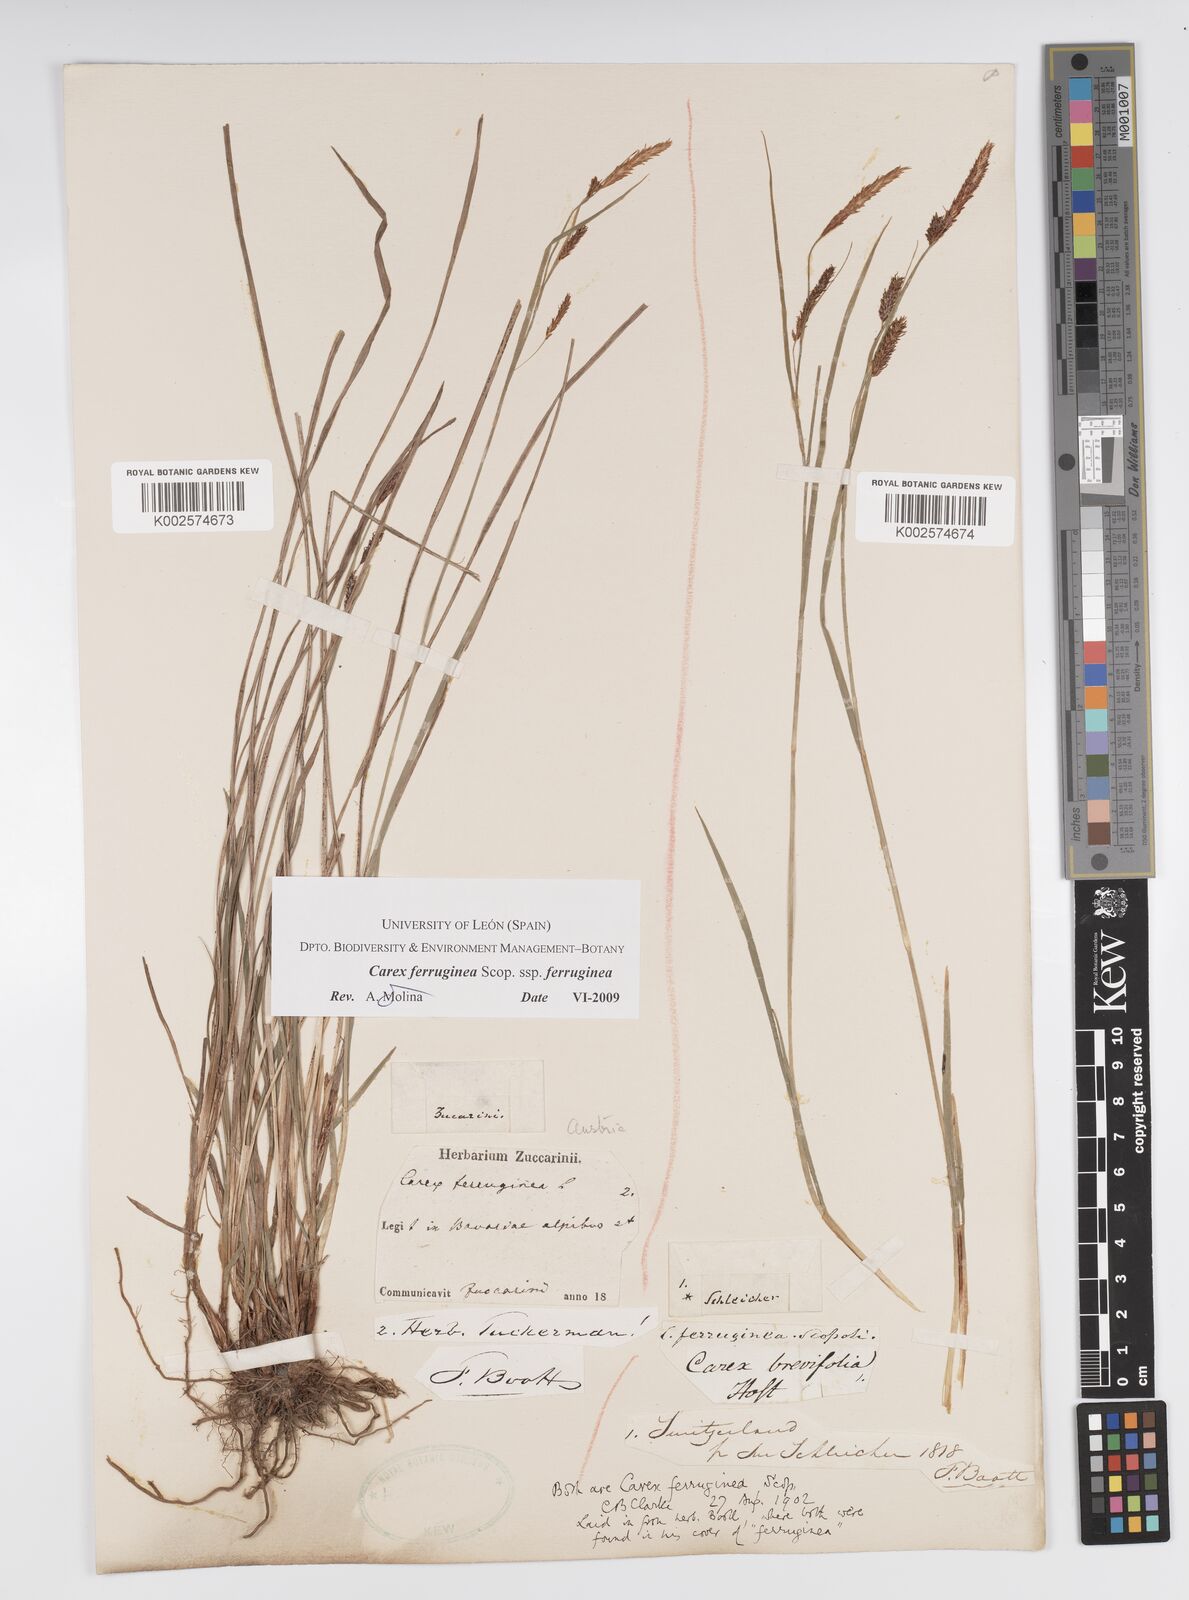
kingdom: Plantae
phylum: Tracheophyta
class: Liliopsida
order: Poales
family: Cyperaceae
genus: Carex
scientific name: Carex ferruginea
